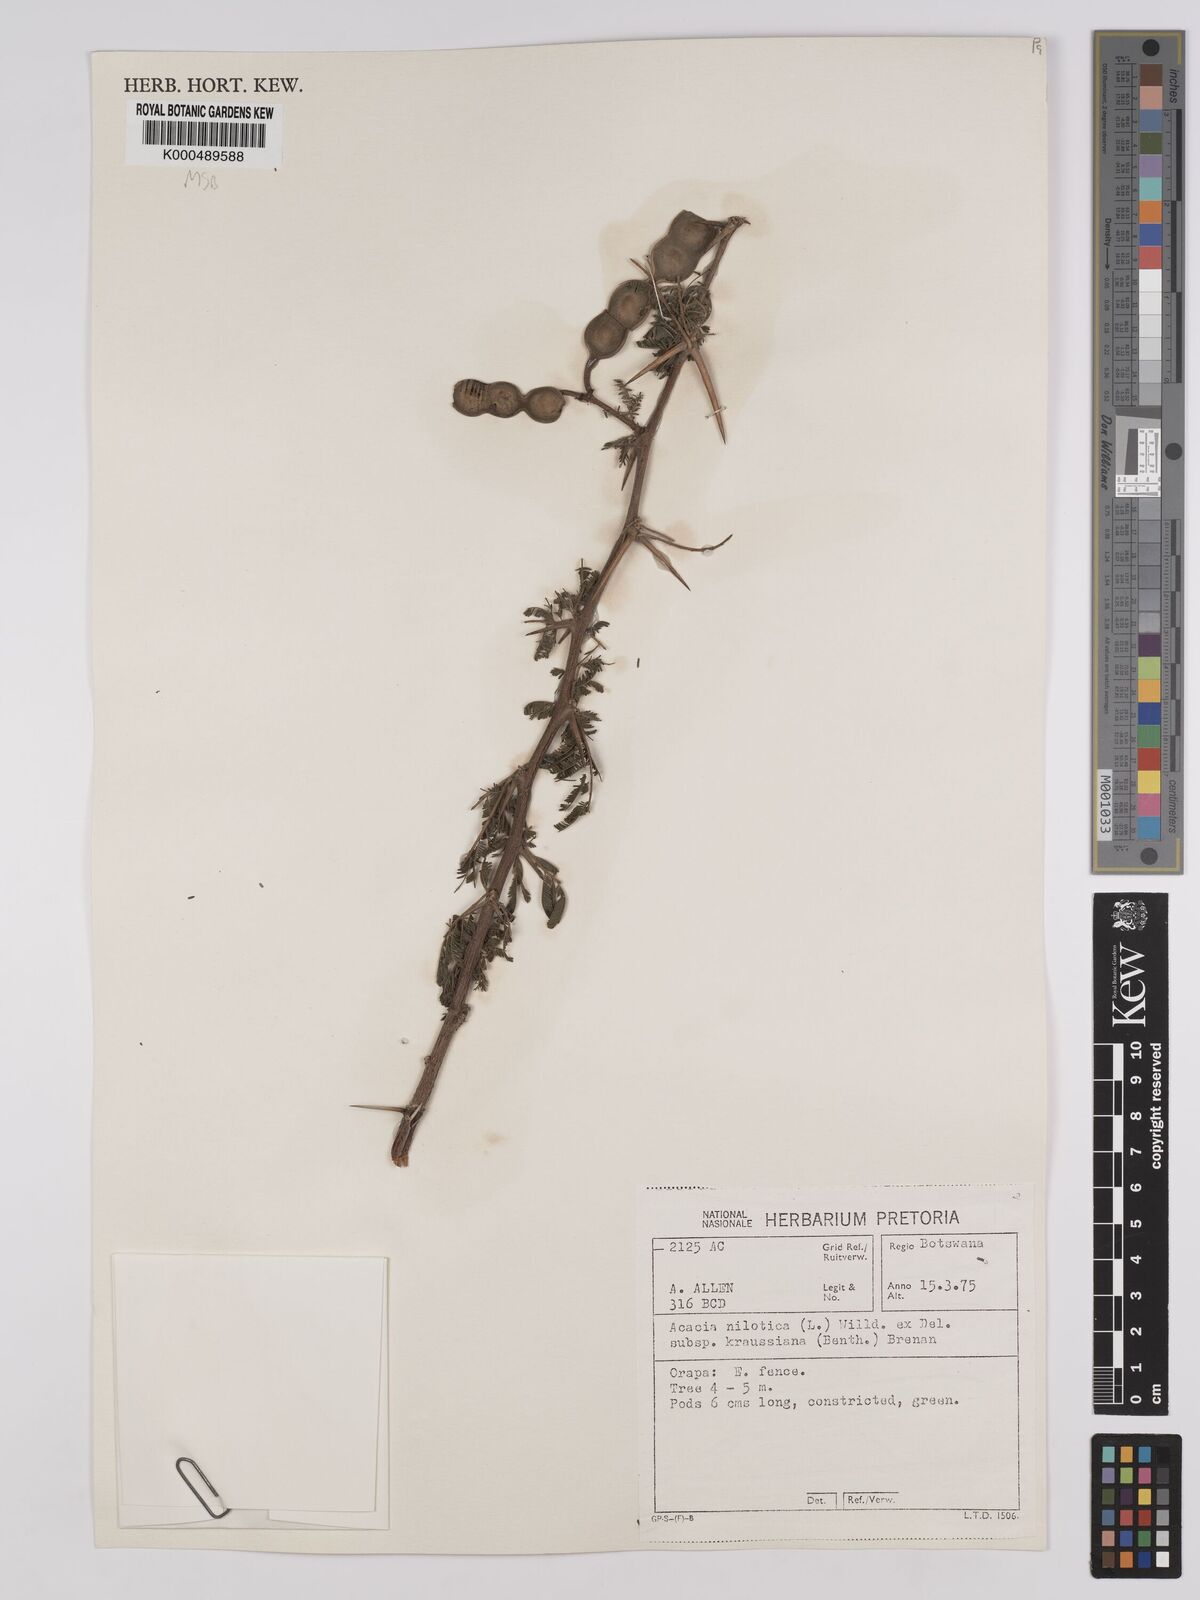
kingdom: Plantae
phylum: Tracheophyta
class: Magnoliopsida
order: Fabales
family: Fabaceae
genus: Vachellia
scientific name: Vachellia nilotica
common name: Arabic gumtree
